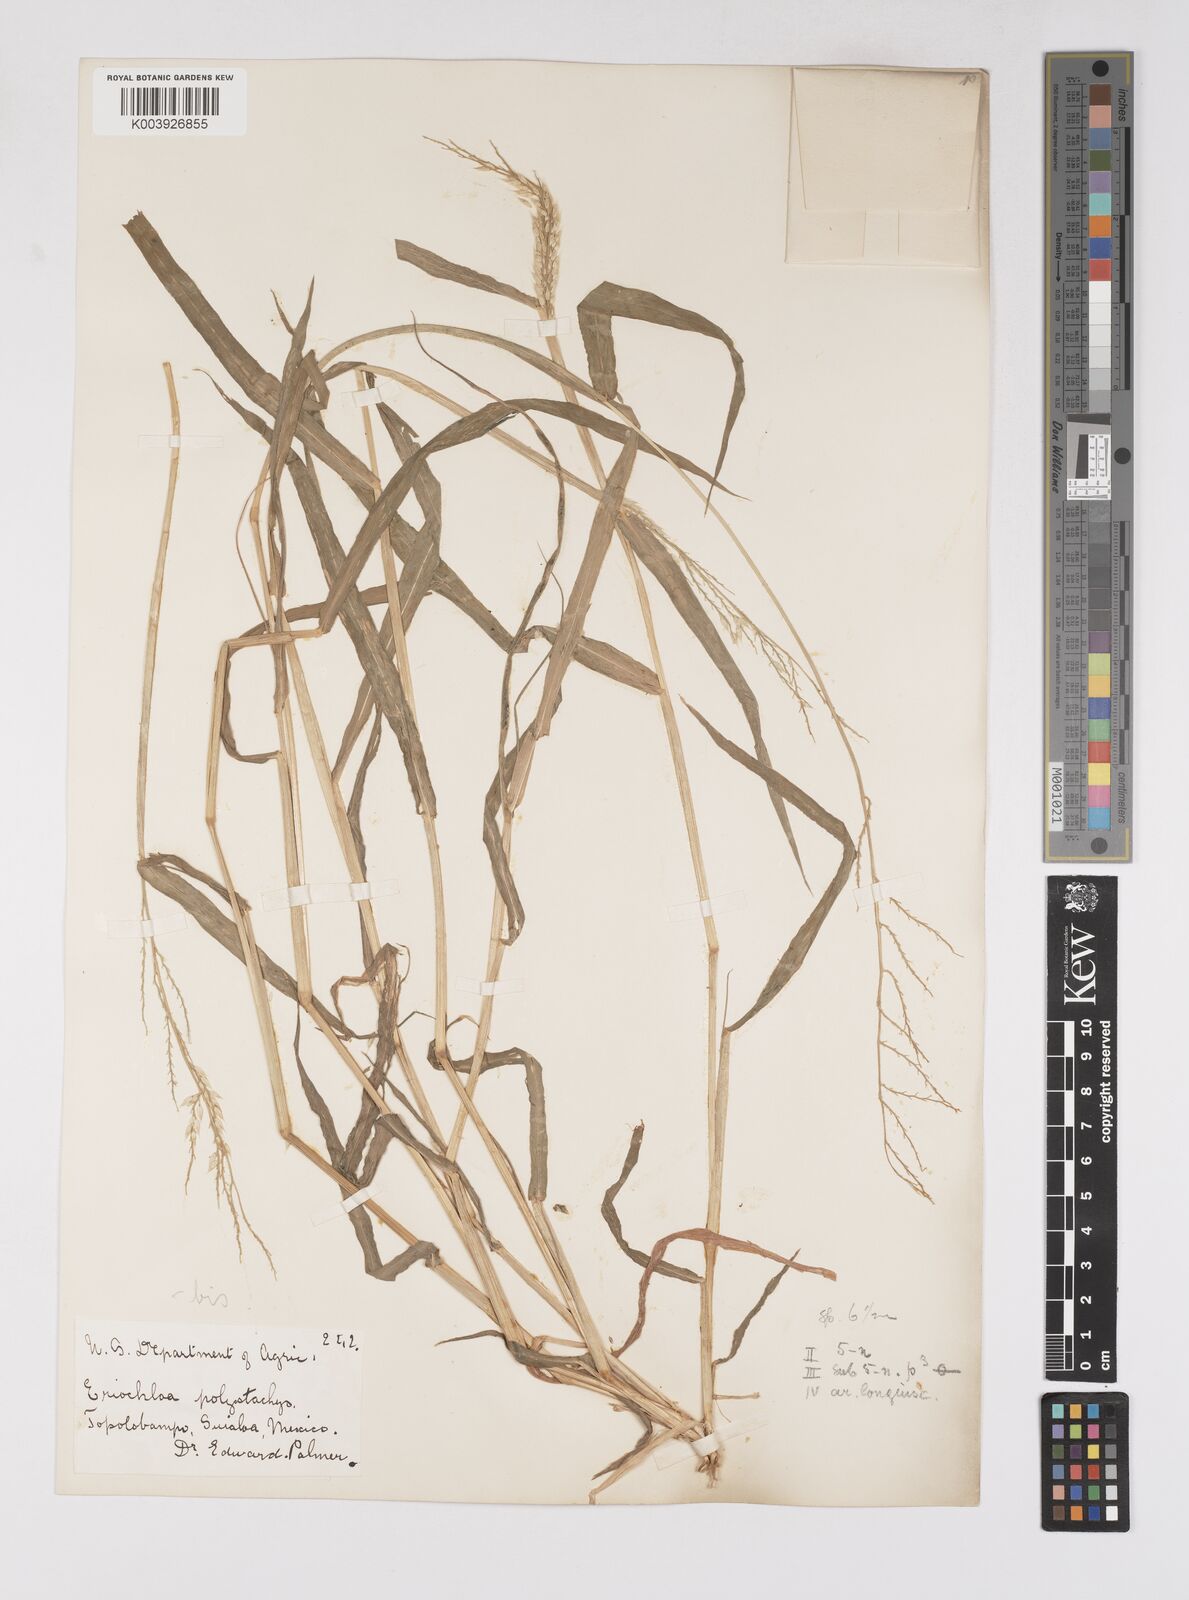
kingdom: Plantae
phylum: Tracheophyta
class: Liliopsida
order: Poales
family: Poaceae
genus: Eriochloa
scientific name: Eriochloa aristata
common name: Bearded cup grass
